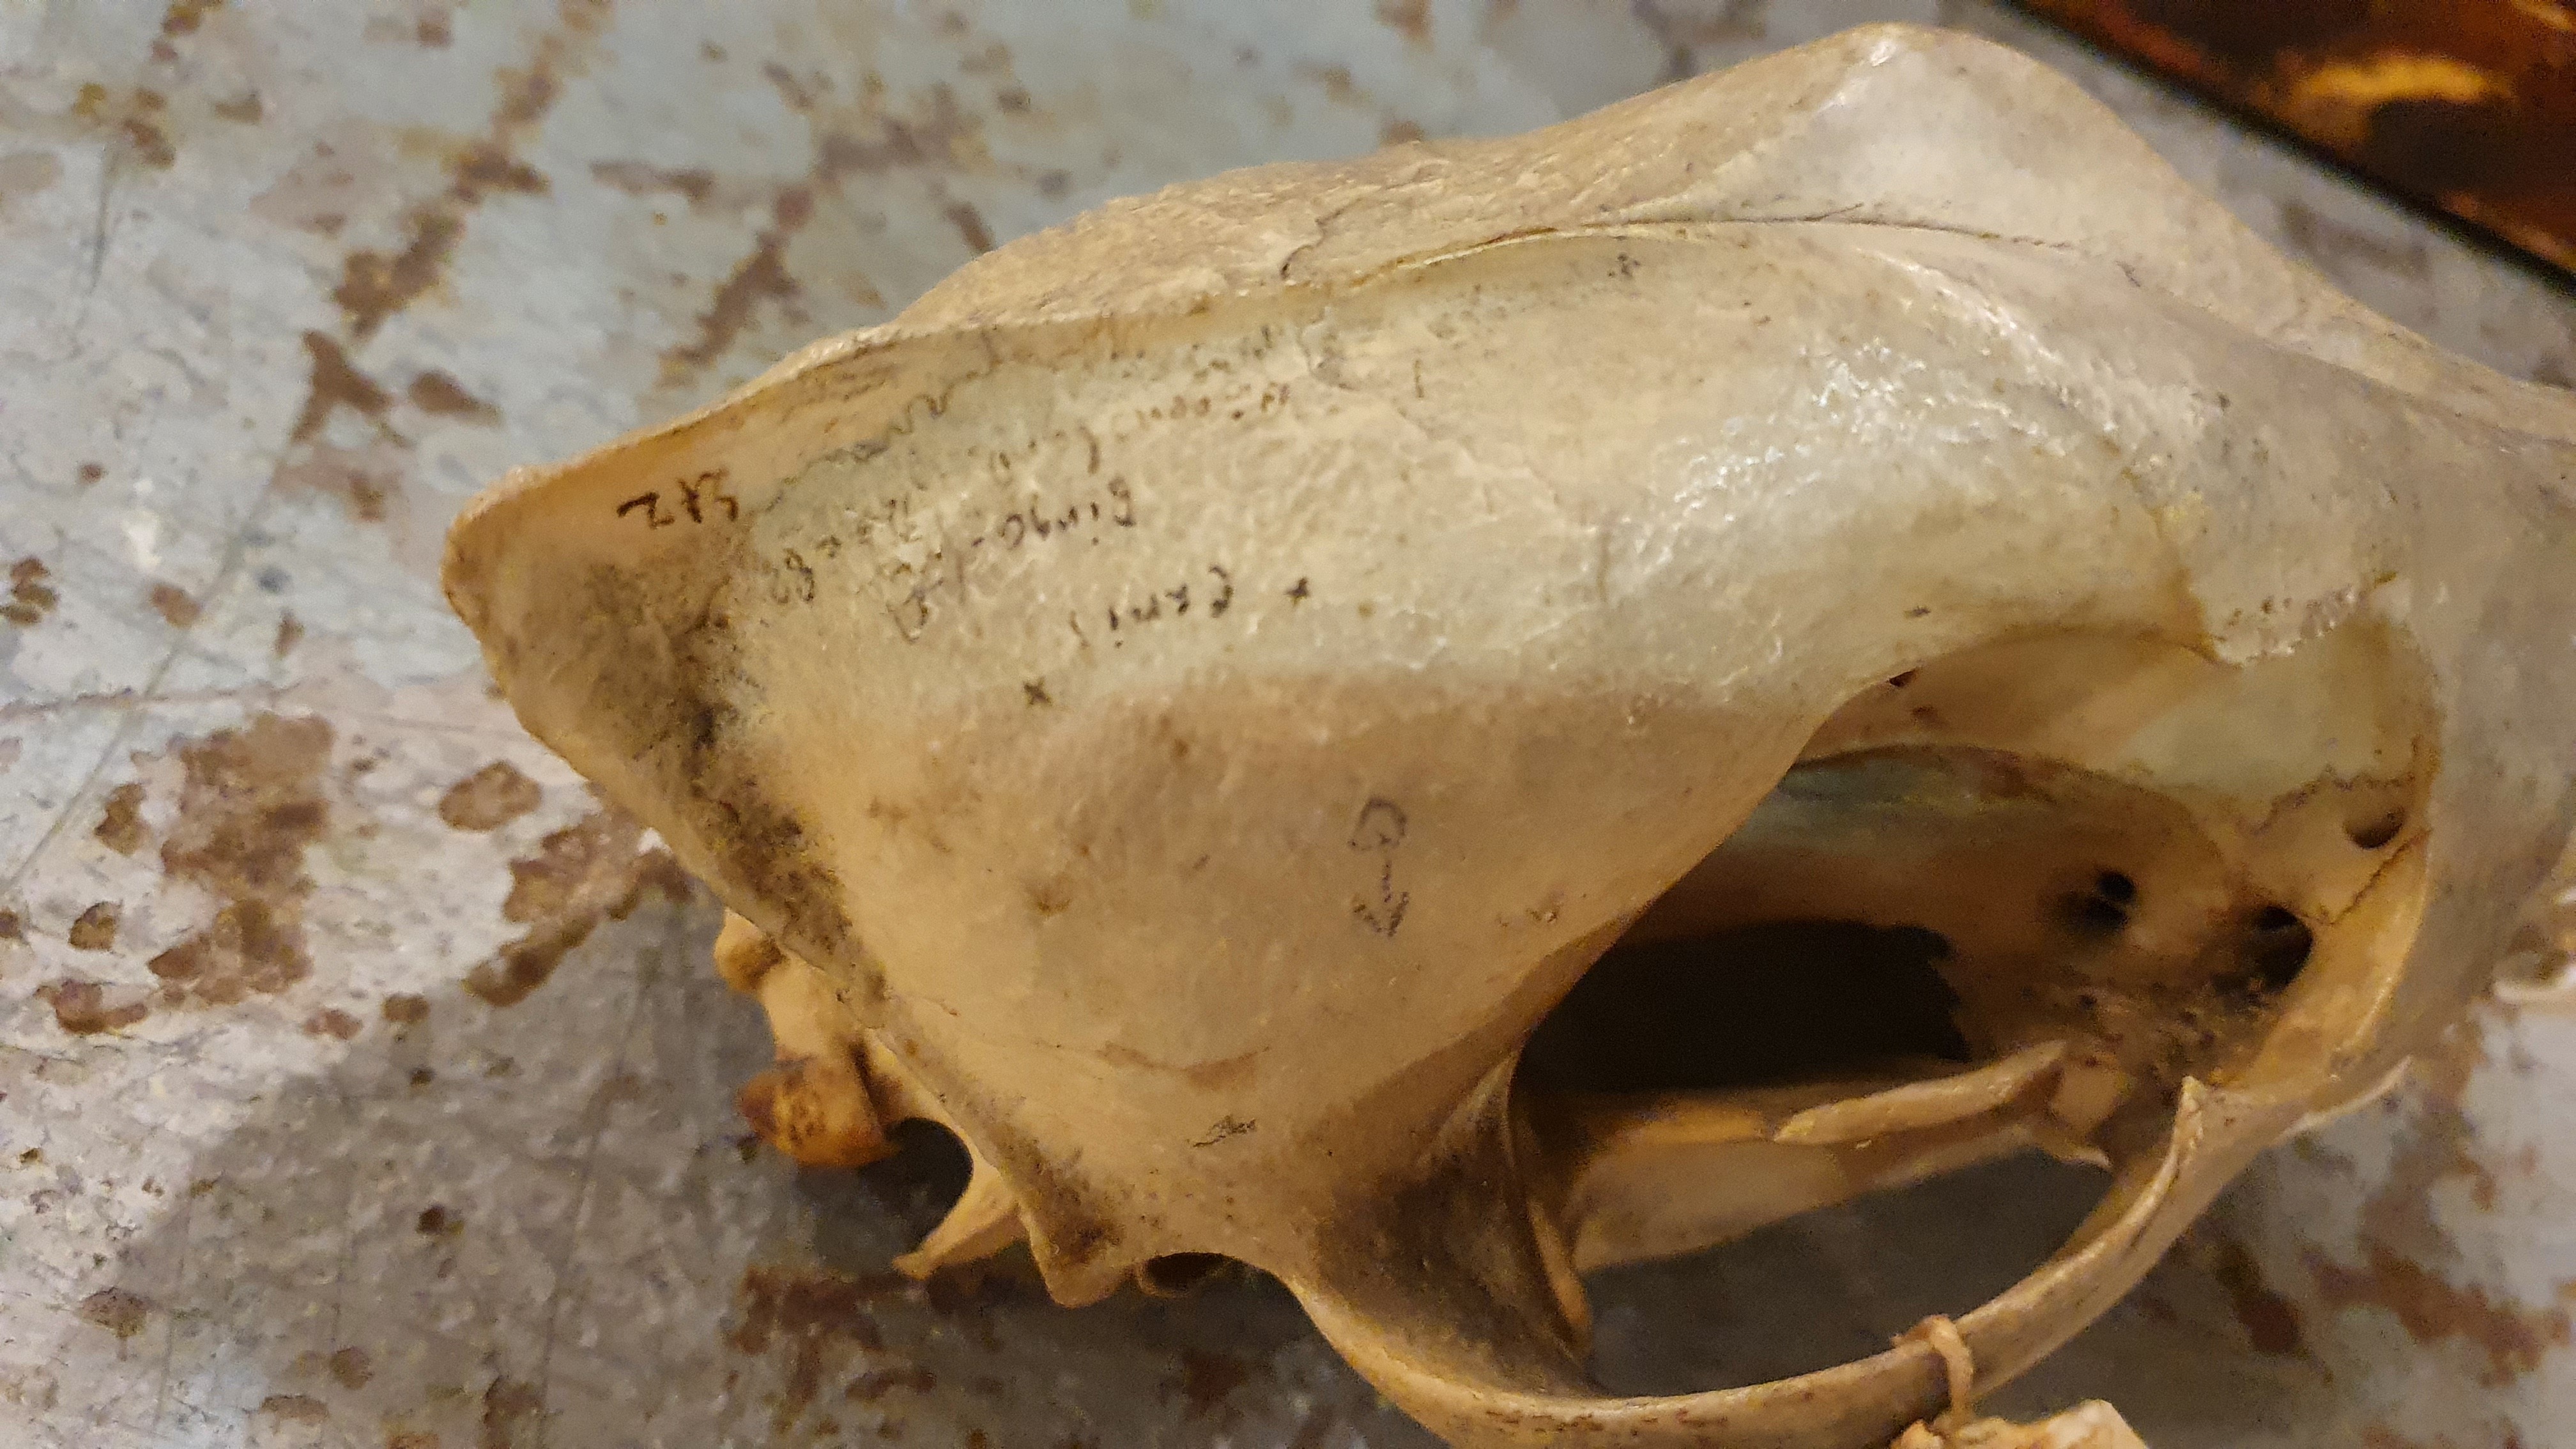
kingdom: Animalia
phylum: Chordata
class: Mammalia
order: Carnivora
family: Canidae
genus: Canis
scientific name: Canis lupus
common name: Gray wolf
